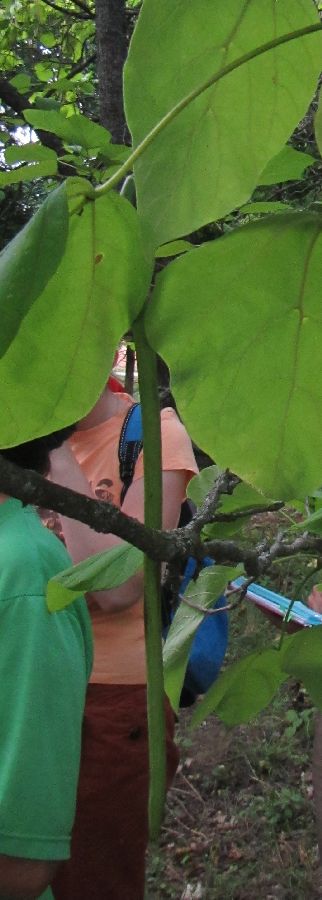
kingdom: Plantae
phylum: Tracheophyta
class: Magnoliopsida
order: Lamiales
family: Bignoniaceae
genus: Catalpa
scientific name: Catalpa speciosa
